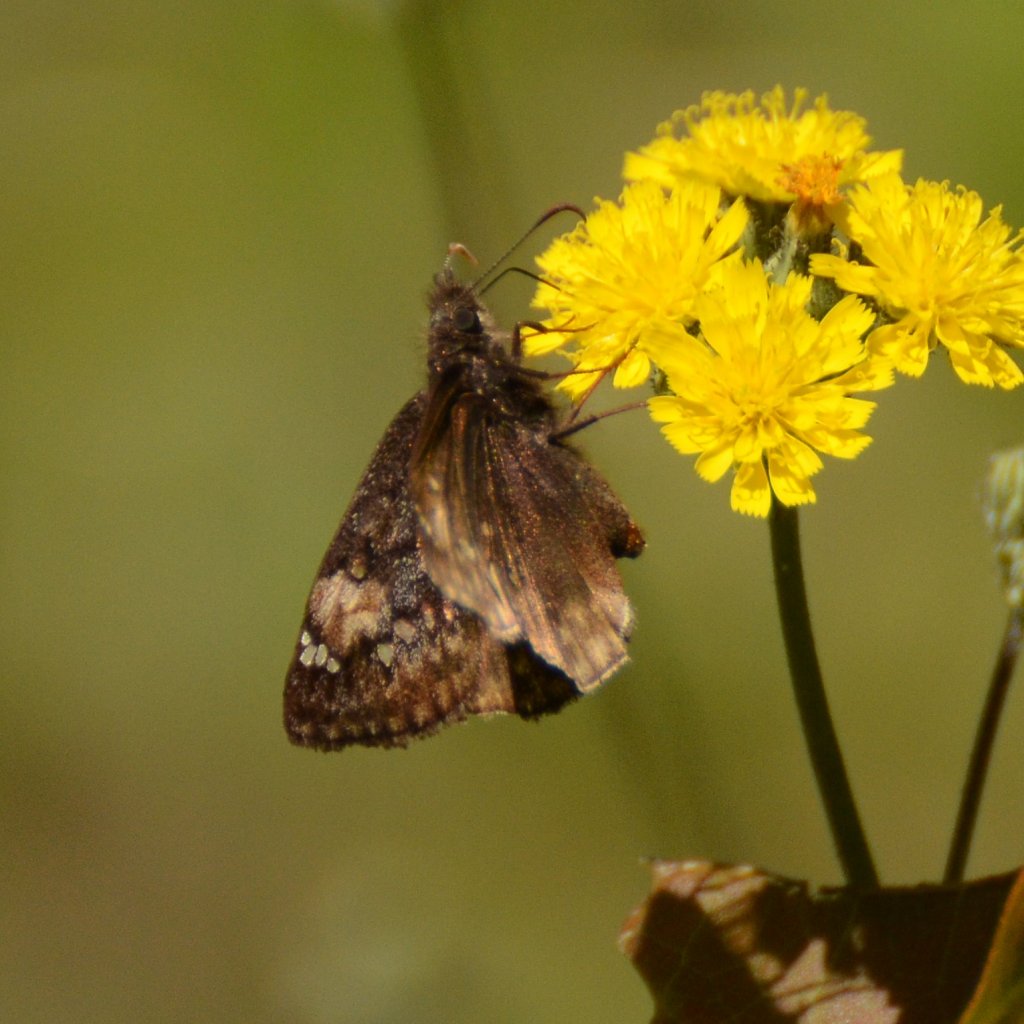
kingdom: Animalia
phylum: Arthropoda
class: Insecta
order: Lepidoptera
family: Hesperiidae
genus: Gesta
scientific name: Gesta
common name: Juvenal's Duskywing
